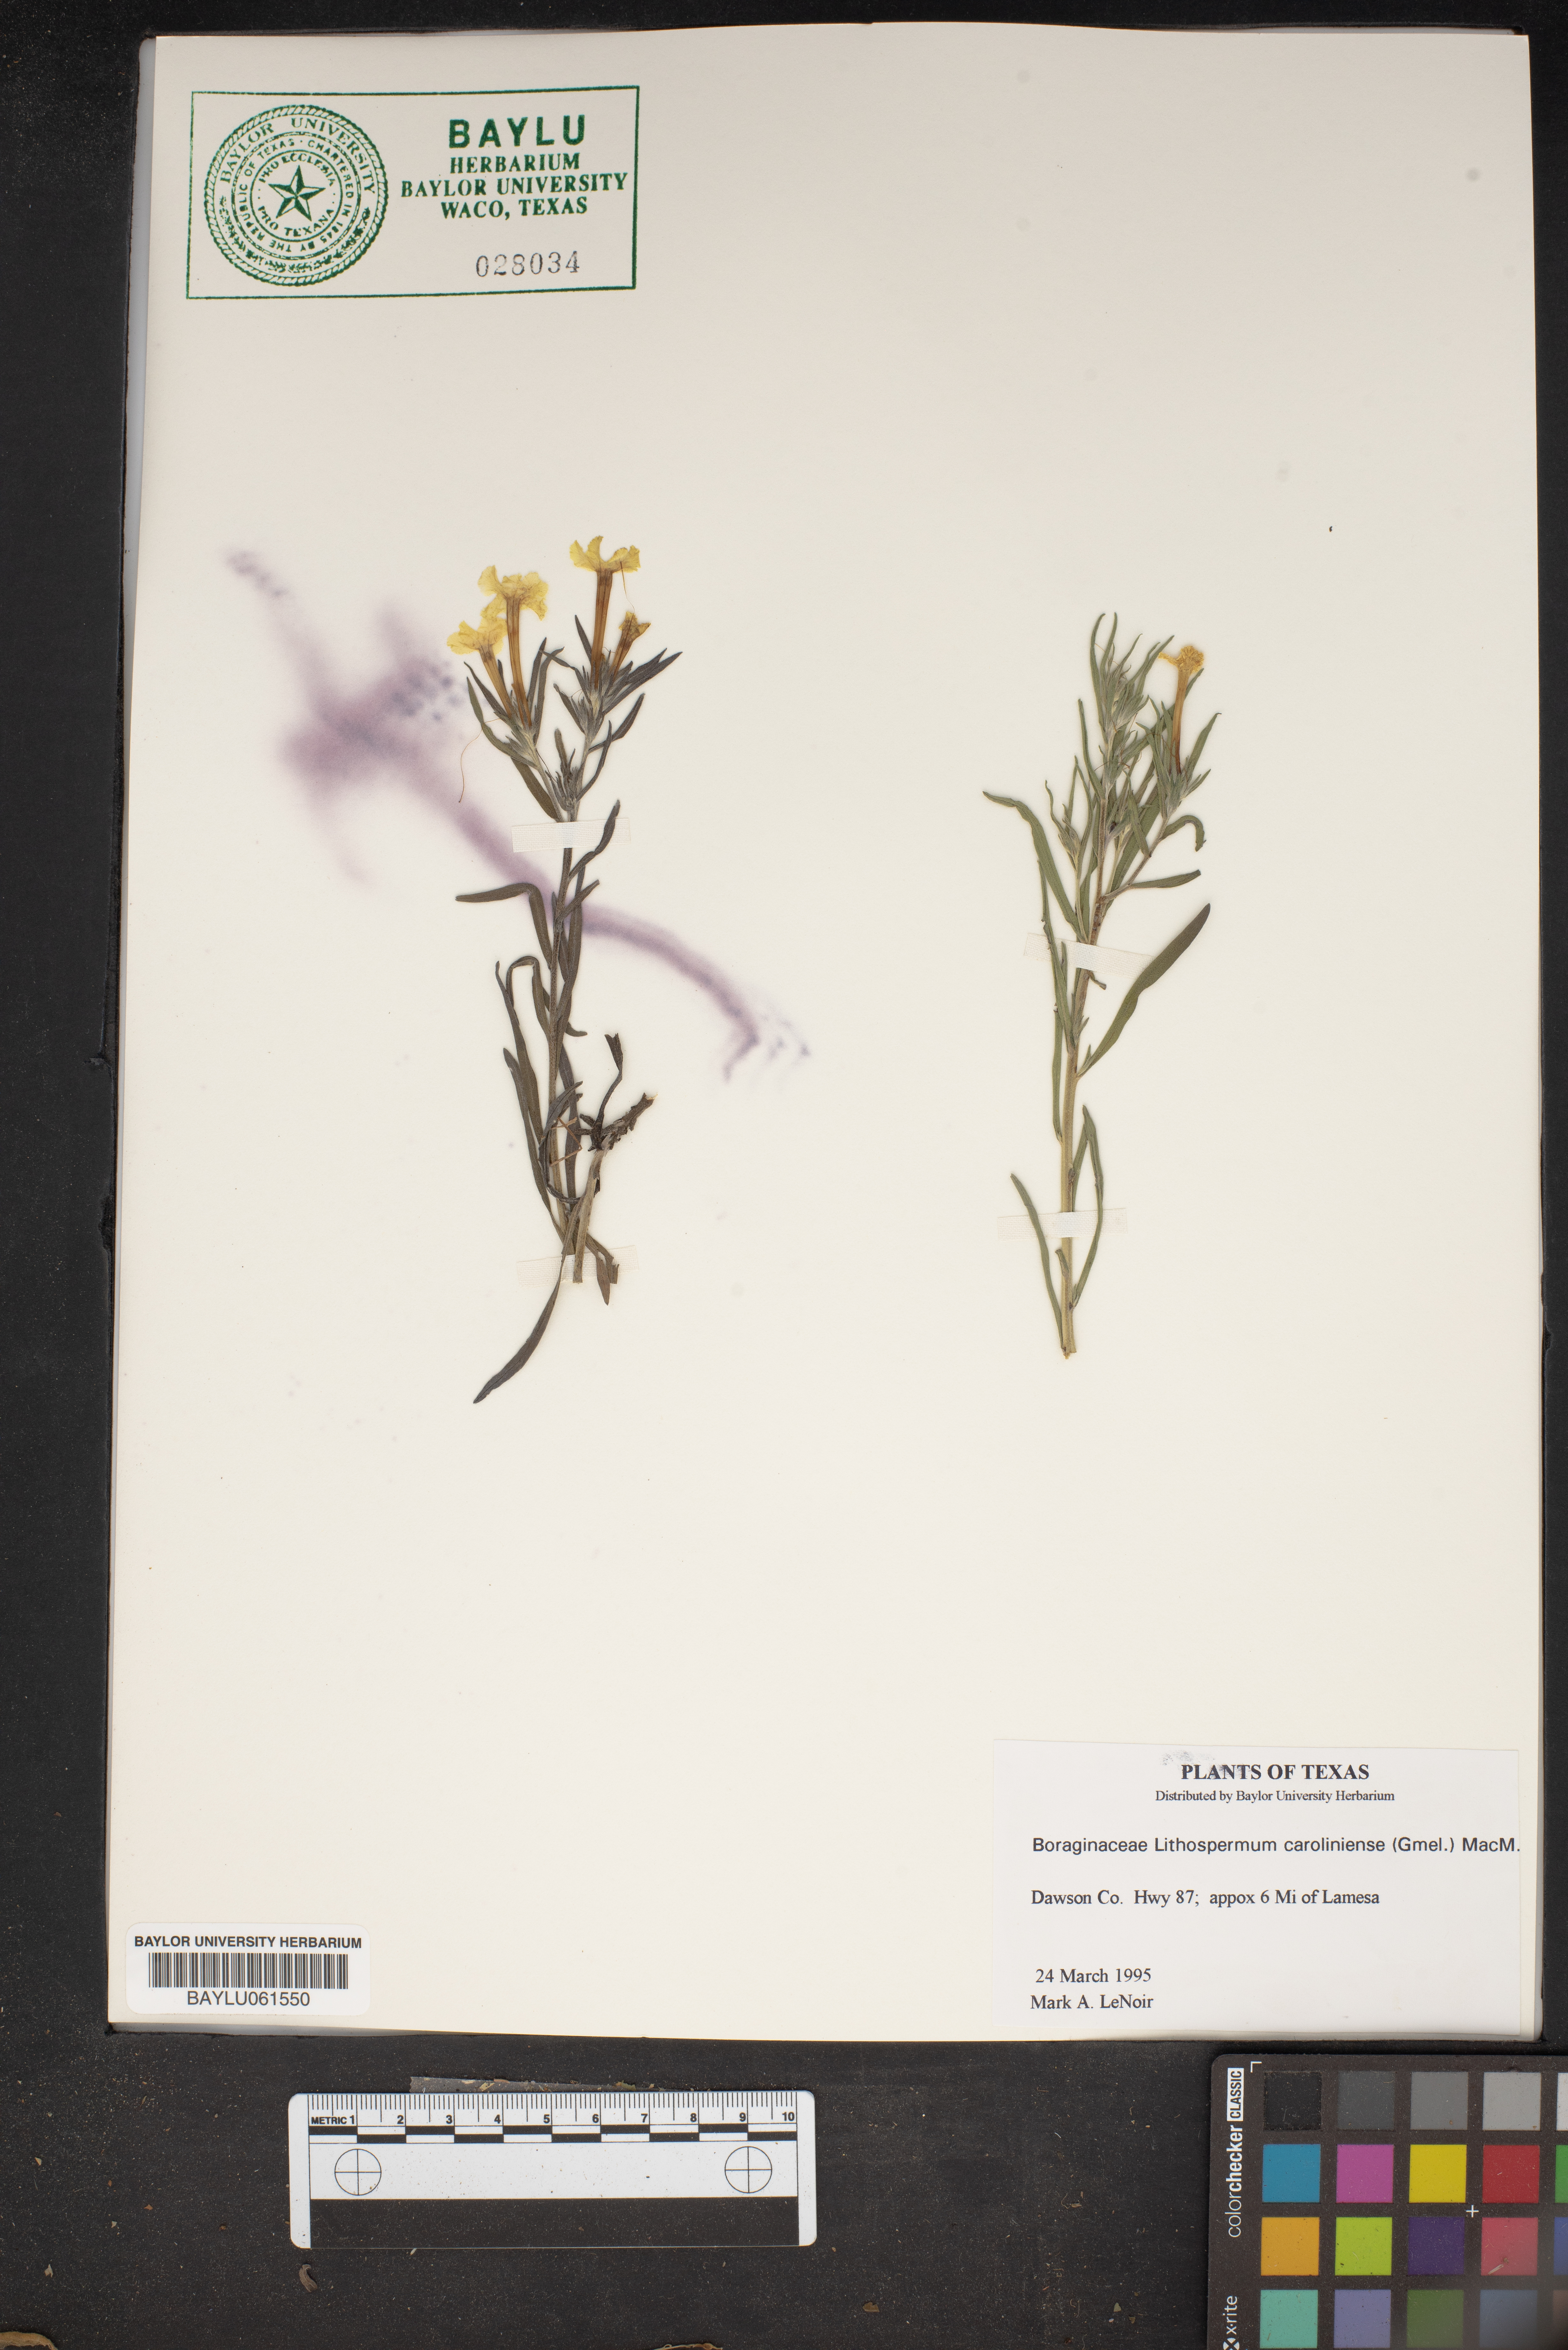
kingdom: Plantae
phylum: Tracheophyta
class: Magnoliopsida
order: Boraginales
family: Boraginaceae
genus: Lithospermum
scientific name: Lithospermum caroliniense
